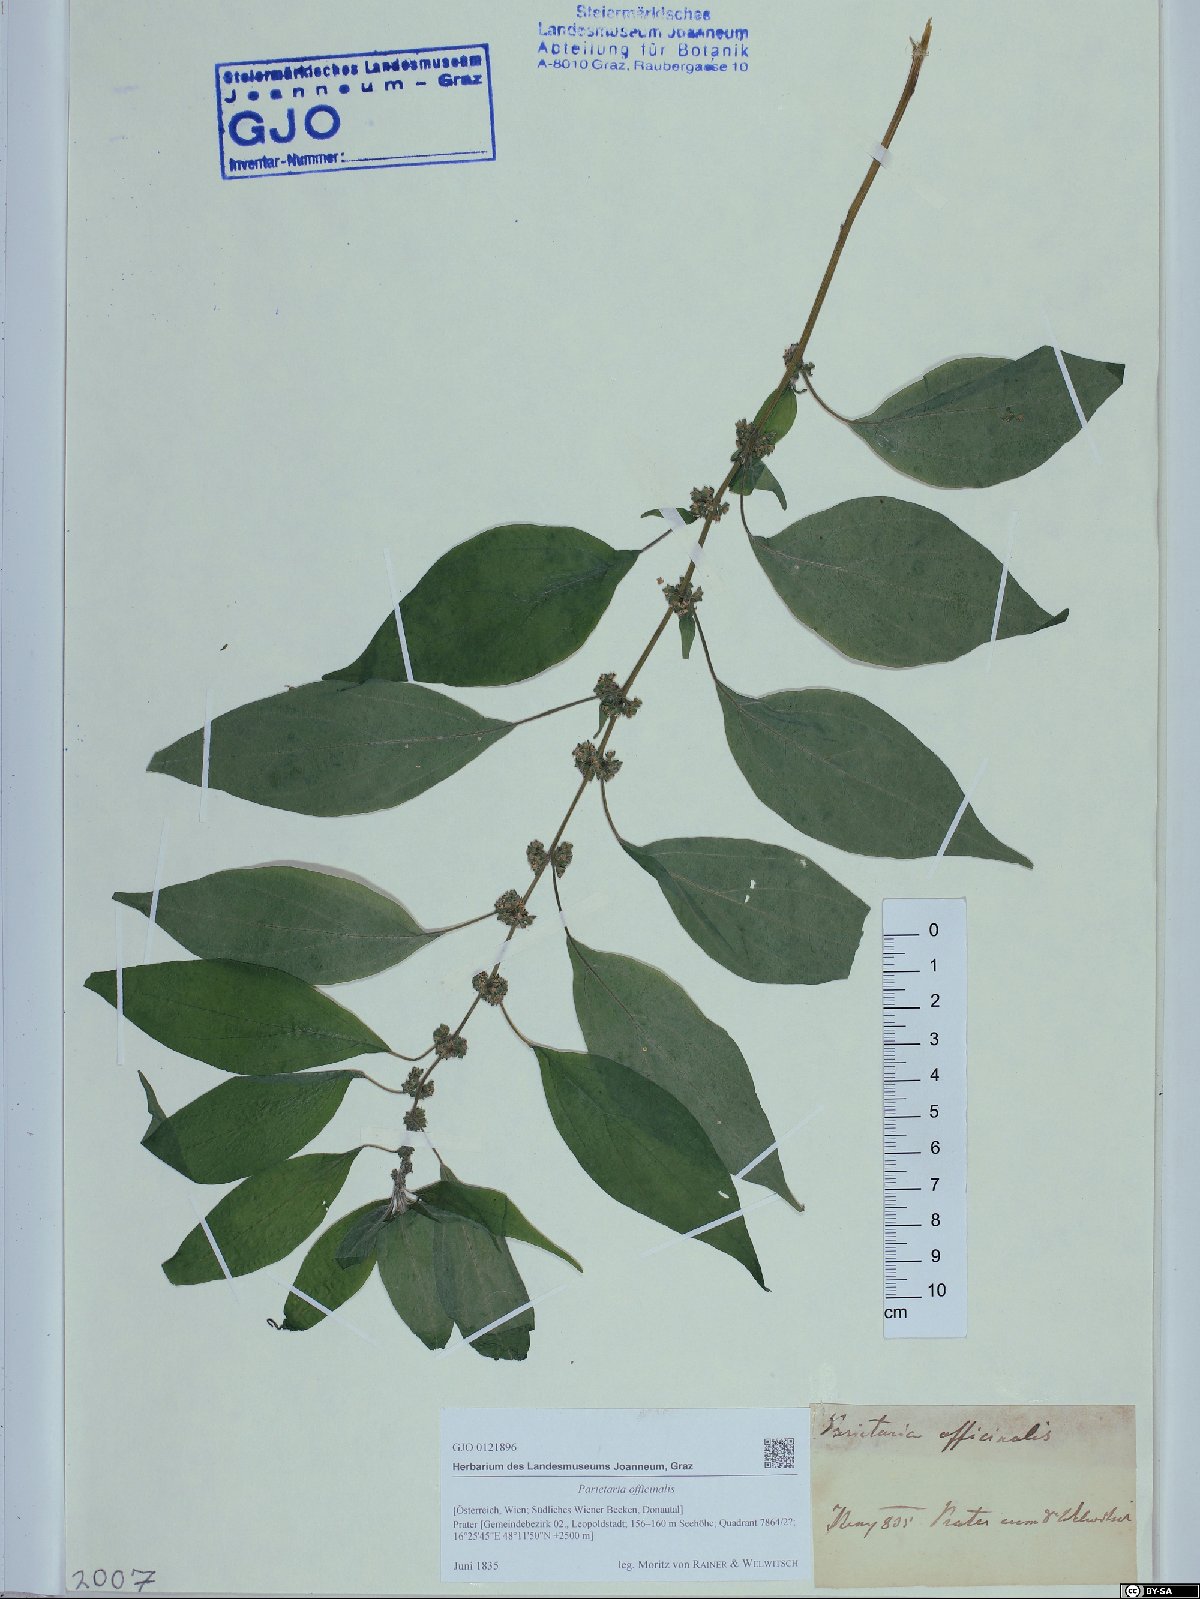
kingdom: Plantae
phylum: Tracheophyta
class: Magnoliopsida
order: Rosales
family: Urticaceae
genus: Parietaria
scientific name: Parietaria officinalis
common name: Eastern pellitory-of-the-wall
